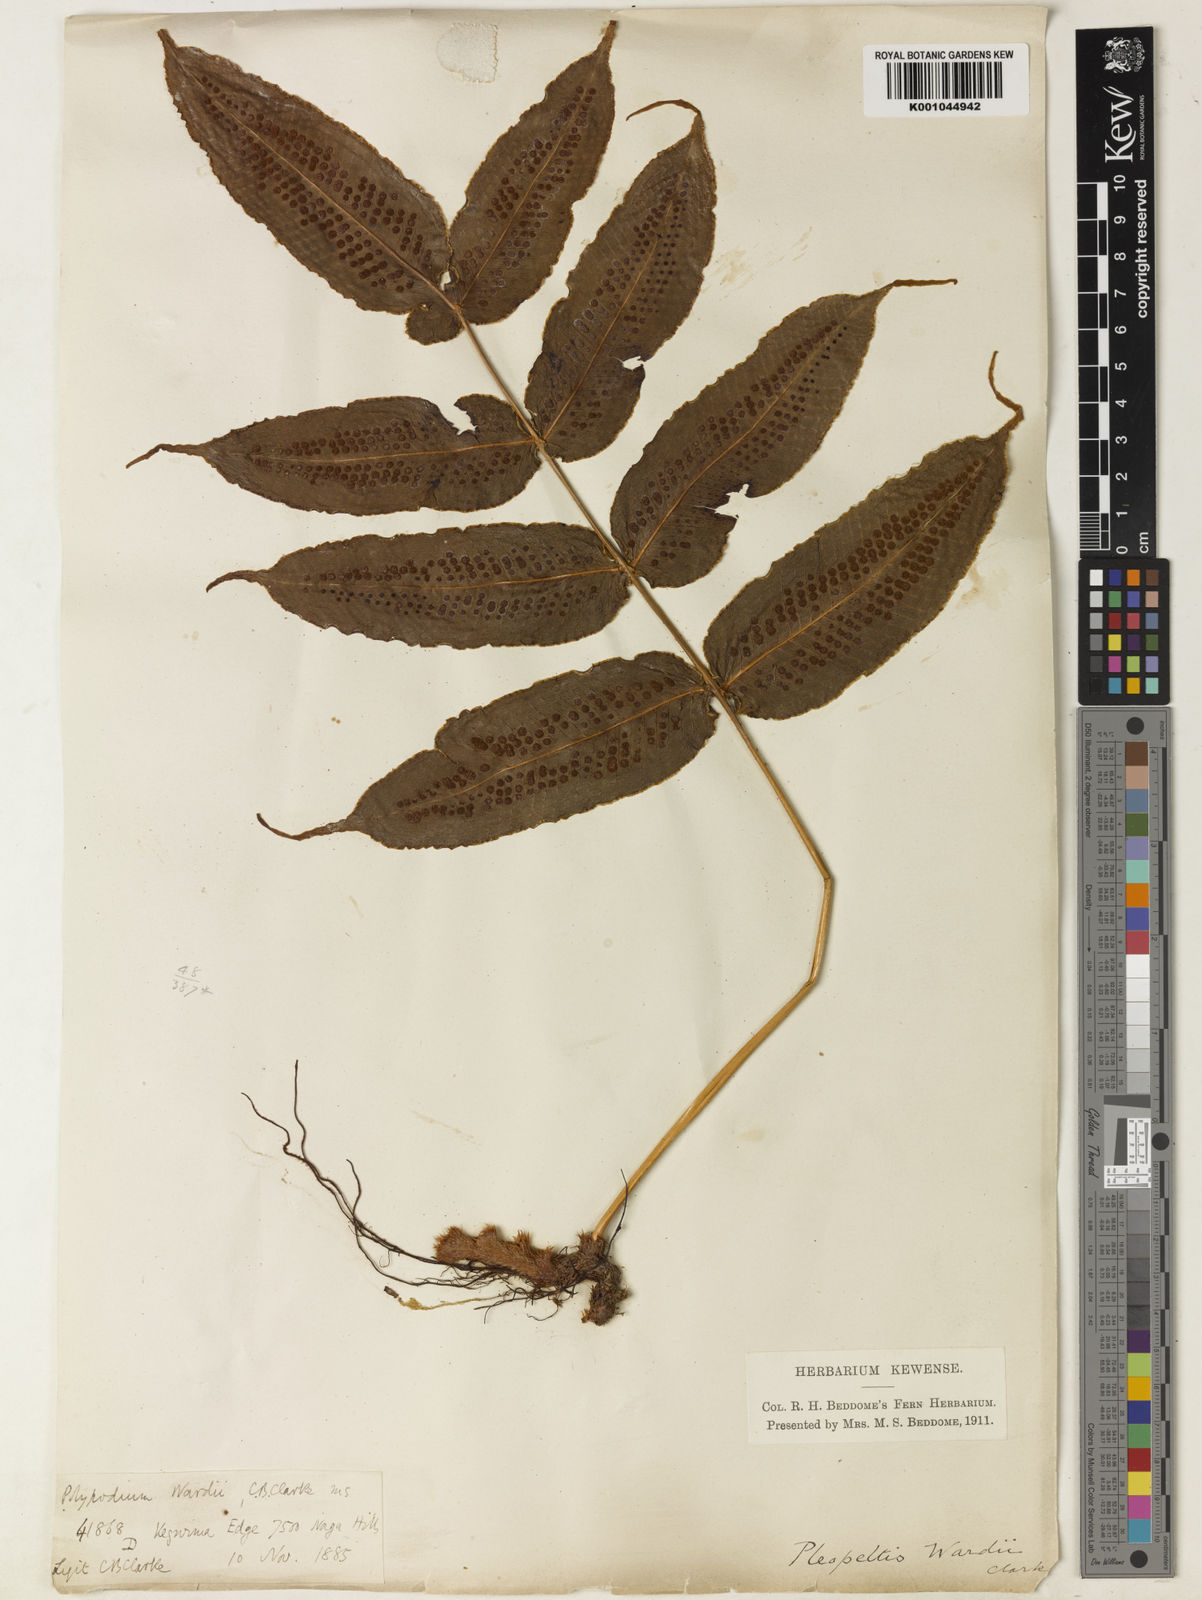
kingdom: Plantae
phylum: Tracheophyta
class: Polypodiopsida
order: Polypodiales
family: Polypodiaceae
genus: Selliguea
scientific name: Selliguea wardii
